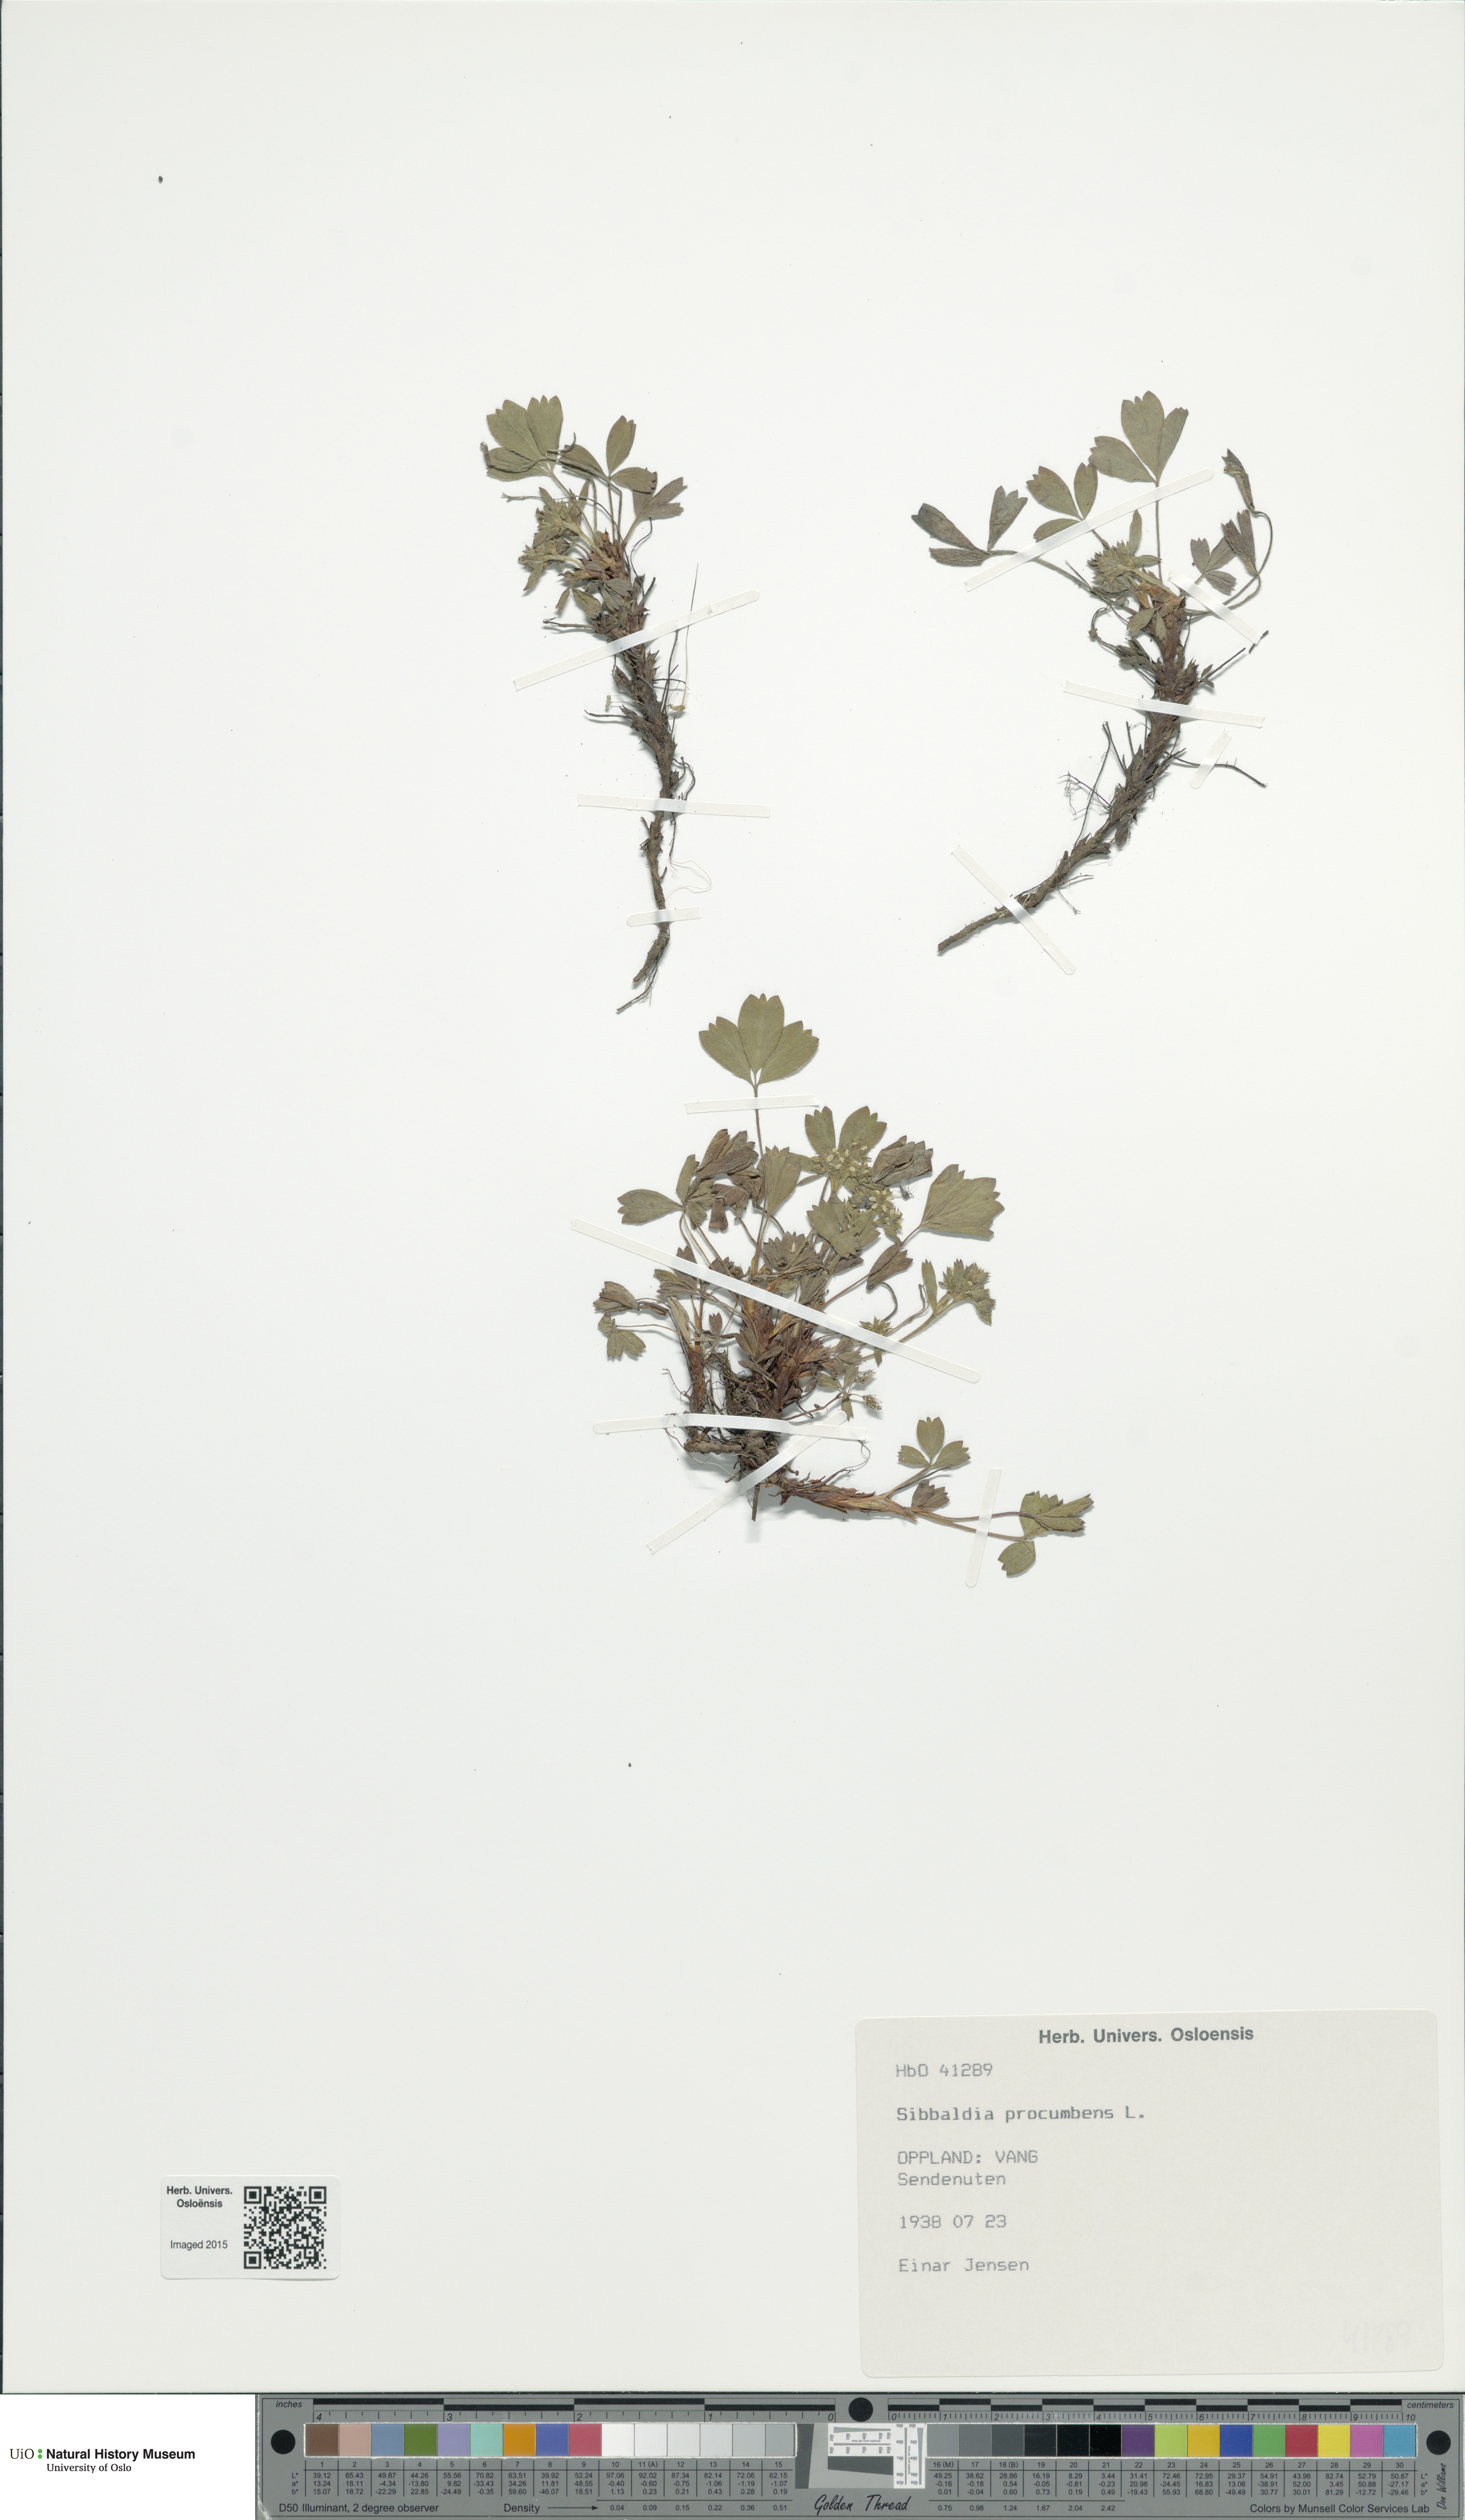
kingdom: Plantae
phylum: Tracheophyta
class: Magnoliopsida
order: Rosales
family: Rosaceae
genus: Sibbaldia
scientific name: Sibbaldia procumbens
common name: Creeping sibbaldia
